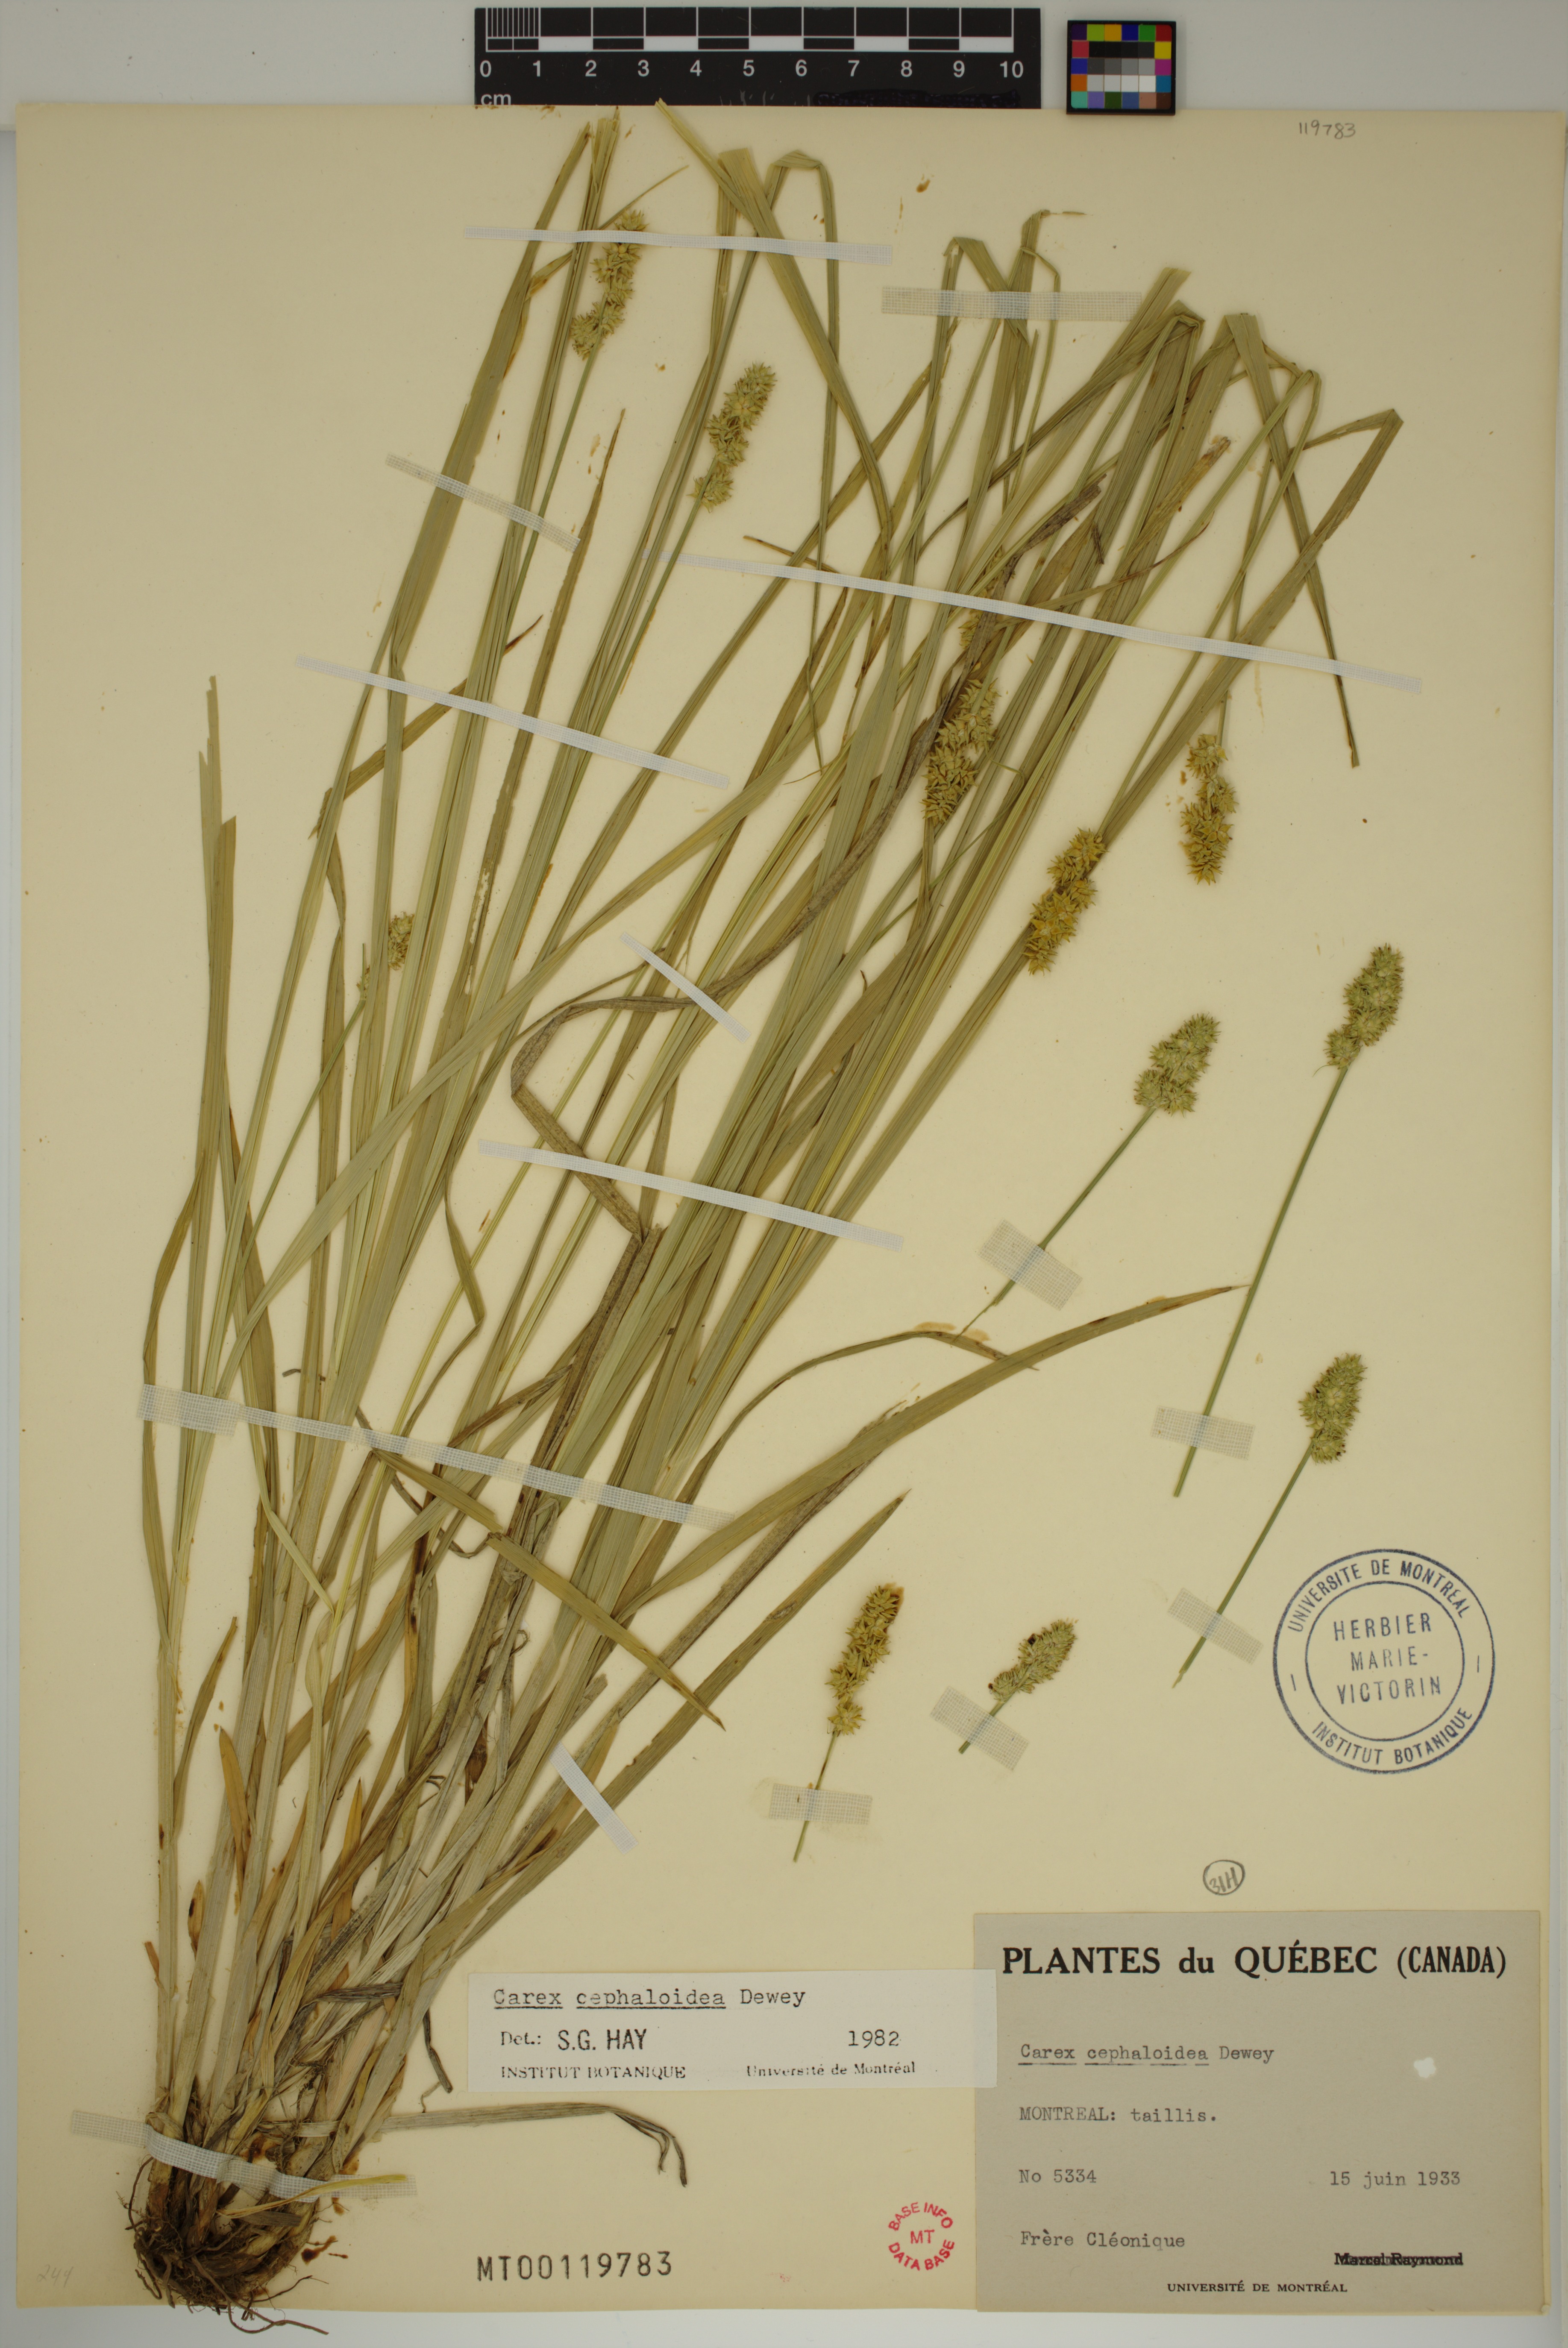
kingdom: Plantae
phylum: Tracheophyta
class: Liliopsida
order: Poales
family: Cyperaceae
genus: Carex
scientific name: Carex cephaloidea
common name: Thin-leaved sedge
